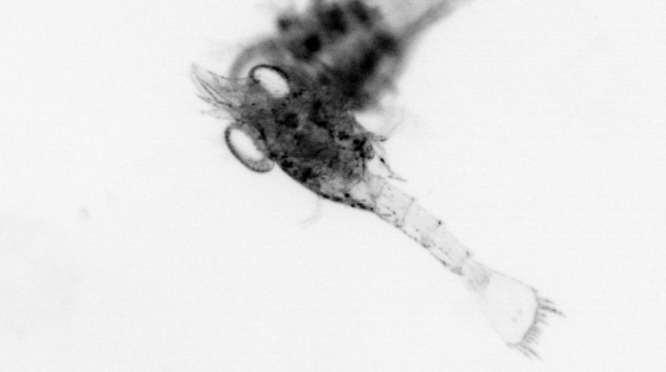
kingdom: Animalia
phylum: Arthropoda
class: Malacostraca
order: Decapoda
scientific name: Decapoda
